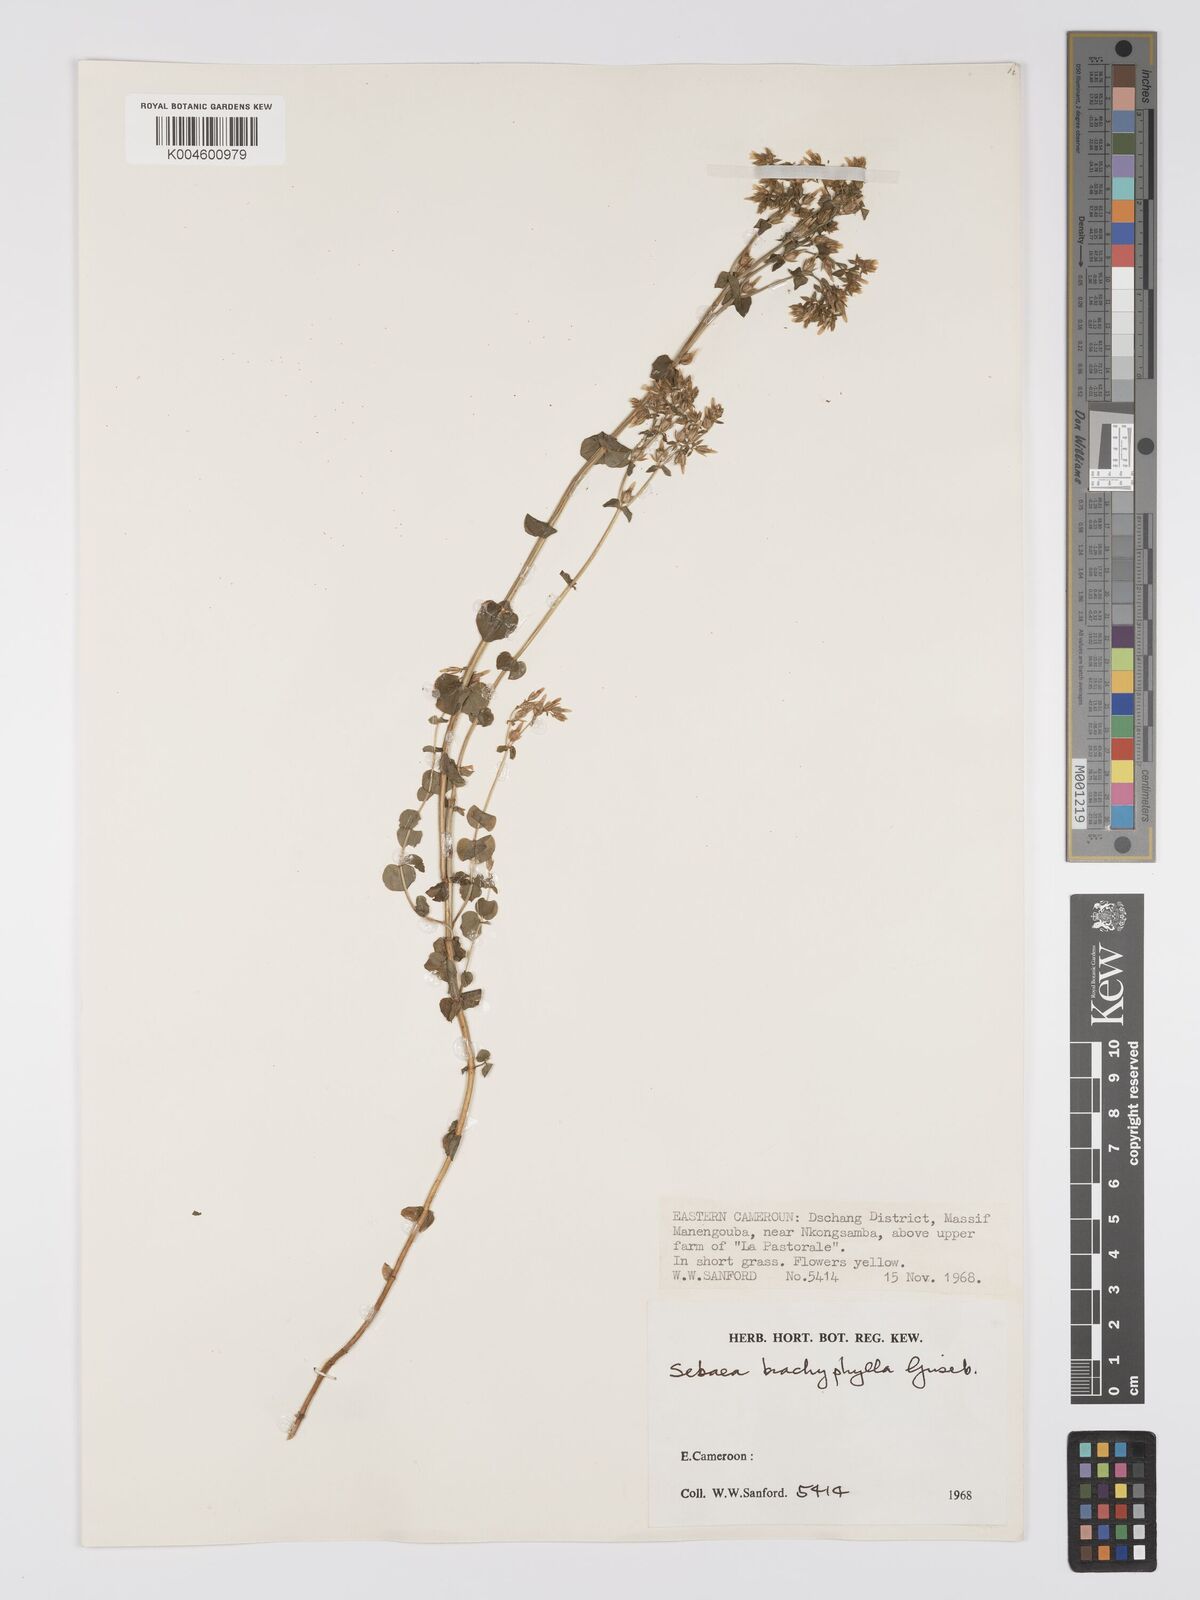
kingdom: Plantae
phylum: Tracheophyta
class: Magnoliopsida
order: Gentianales
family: Gentianaceae
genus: Sebaea
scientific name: Sebaea brachyphylla
